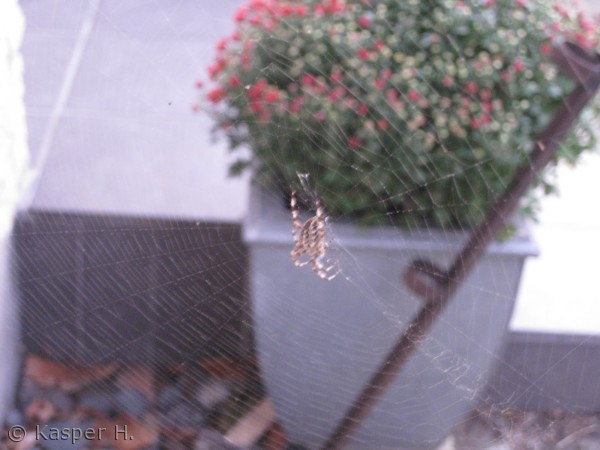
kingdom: Animalia
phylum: Arthropoda
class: Arachnida
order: Araneae
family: Araneidae
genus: Araneus
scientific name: Araneus diadematus
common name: Korsedderkop
